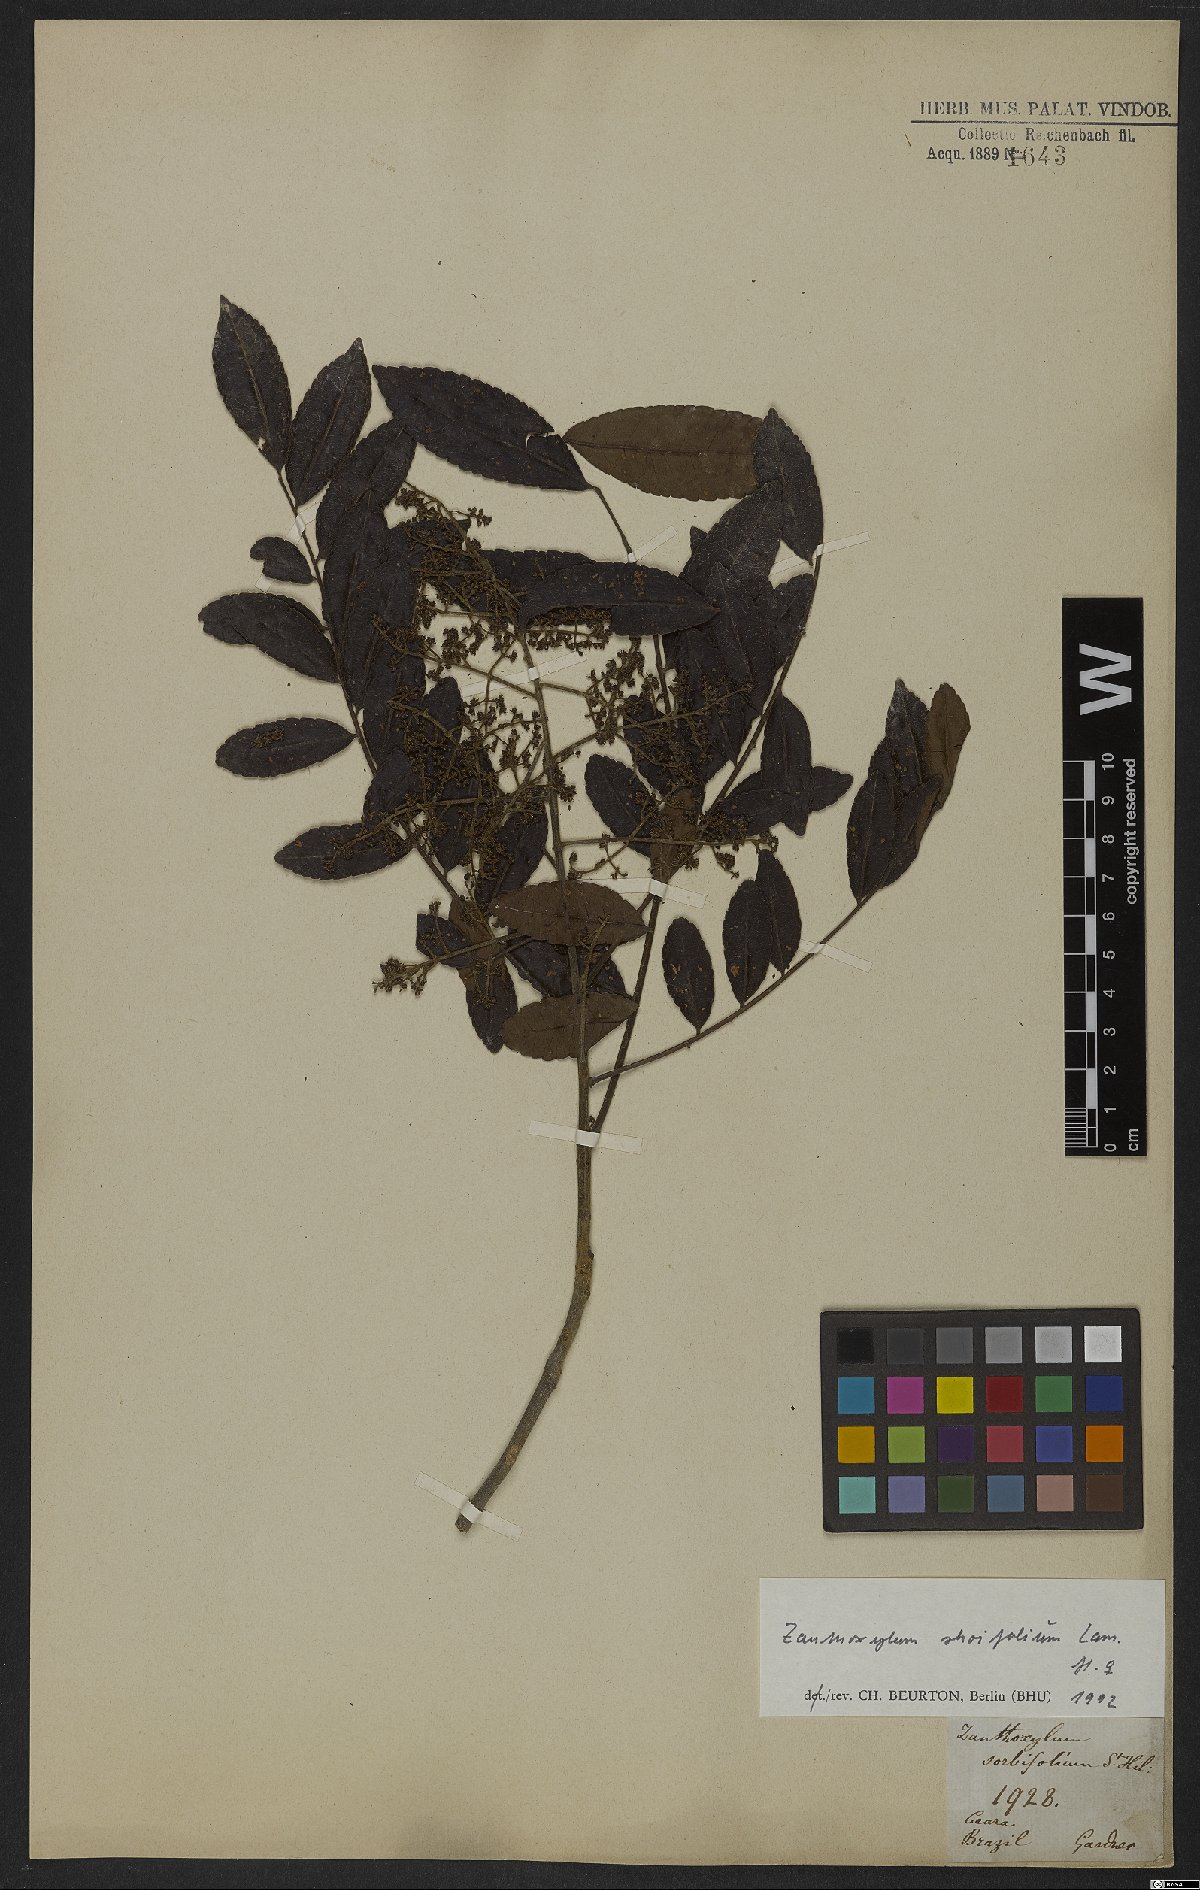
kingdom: Plantae
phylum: Tracheophyta
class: Magnoliopsida
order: Sapindales
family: Rutaceae
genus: Zanthoxylum
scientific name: Zanthoxylum rhoifolium
